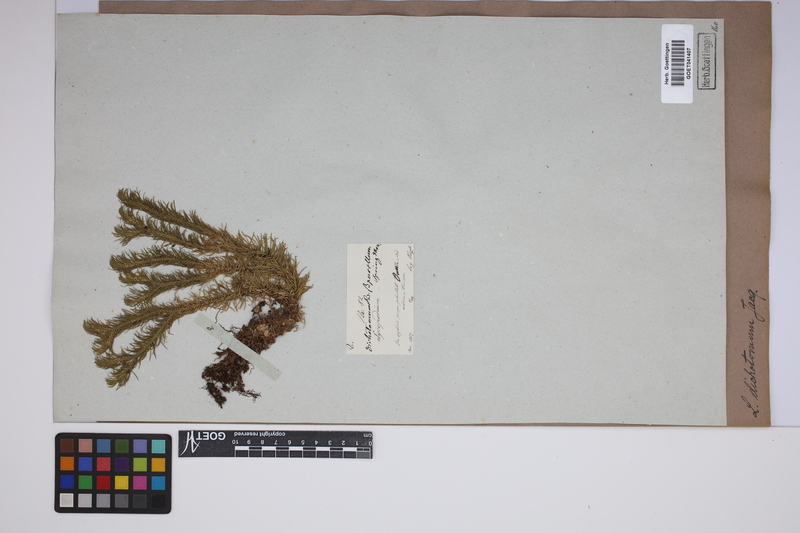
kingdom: Plantae
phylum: Tracheophyta
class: Lycopodiopsida
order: Lycopodiales
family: Lycopodiaceae
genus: Phlegmariurus
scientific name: Phlegmariurus dichotomus
